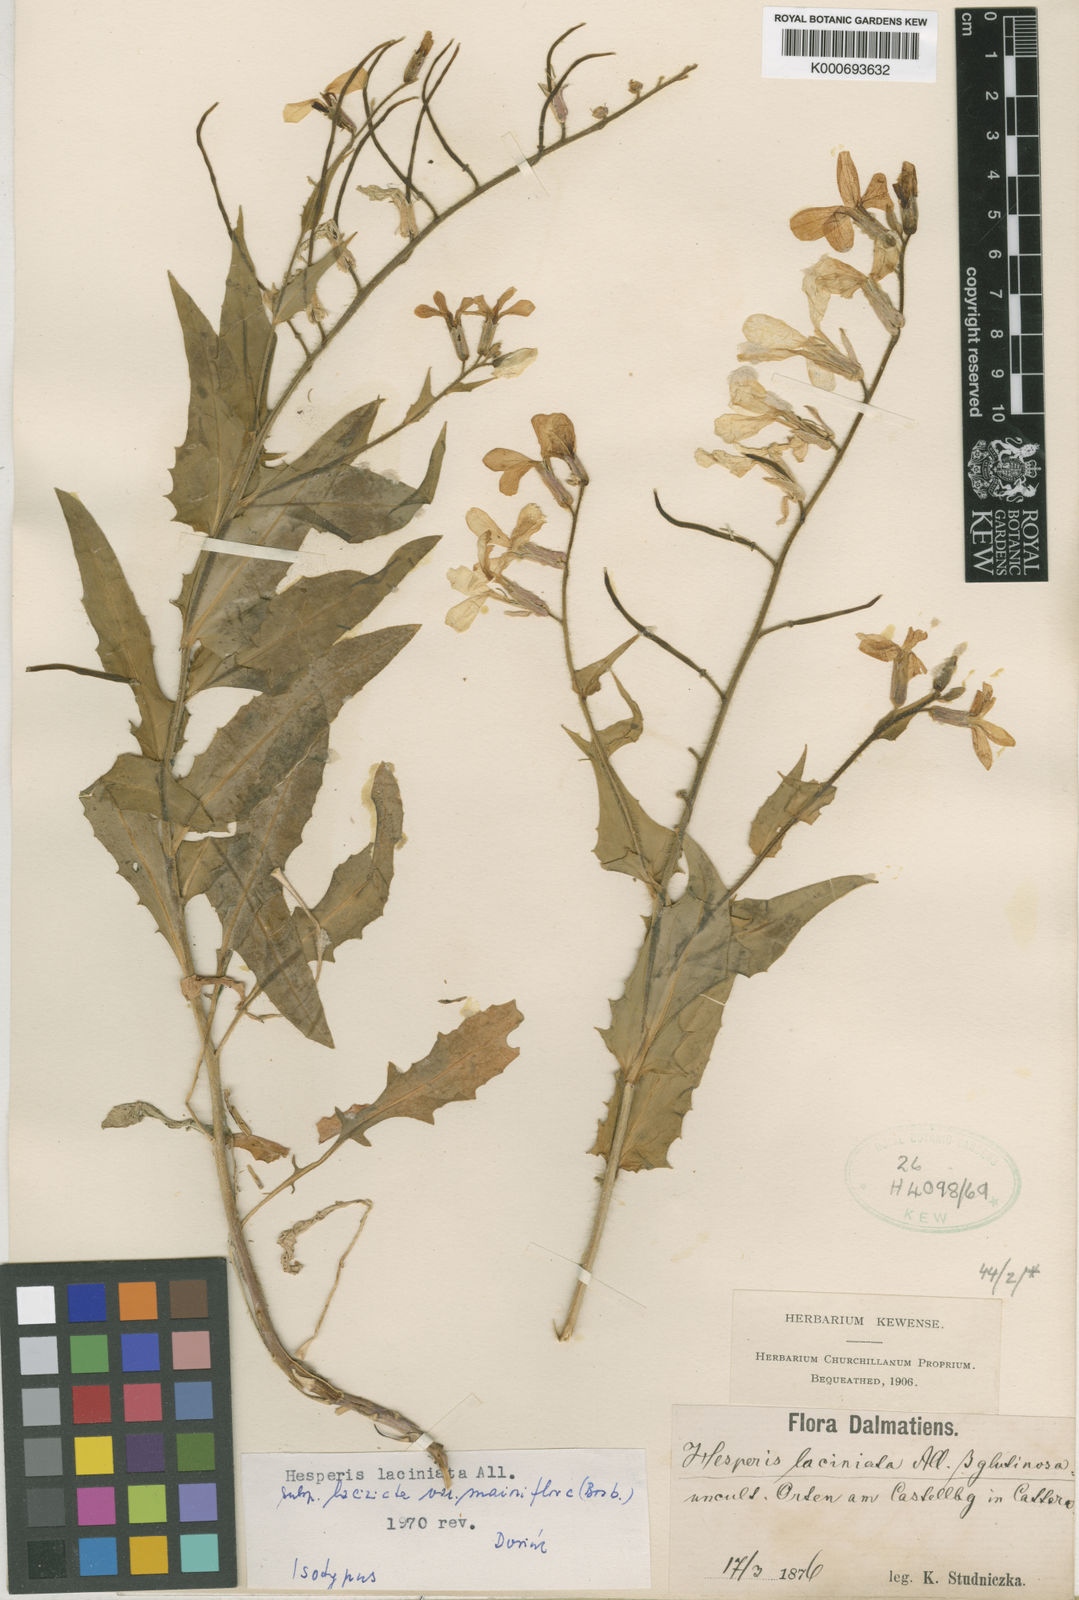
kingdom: Plantae
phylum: Tracheophyta
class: Magnoliopsida
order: Brassicales
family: Brassicaceae
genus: Hesperis
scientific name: Hesperis laciniata
